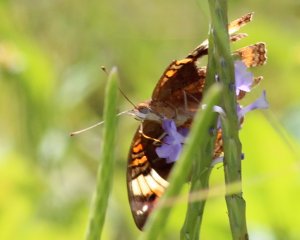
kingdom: Animalia
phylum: Arthropoda
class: Insecta
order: Lepidoptera
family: Nymphalidae
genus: Anartia
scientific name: Anartia jatrophae
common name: White Peacock
